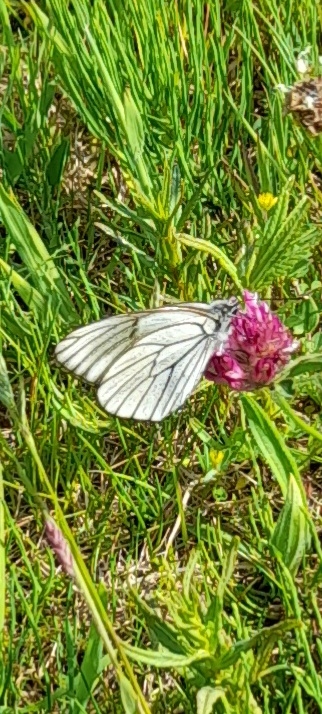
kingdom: Animalia
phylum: Arthropoda
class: Insecta
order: Lepidoptera
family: Pieridae
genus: Aporia
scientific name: Aporia crataegi
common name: Sortåret hvidvinge
